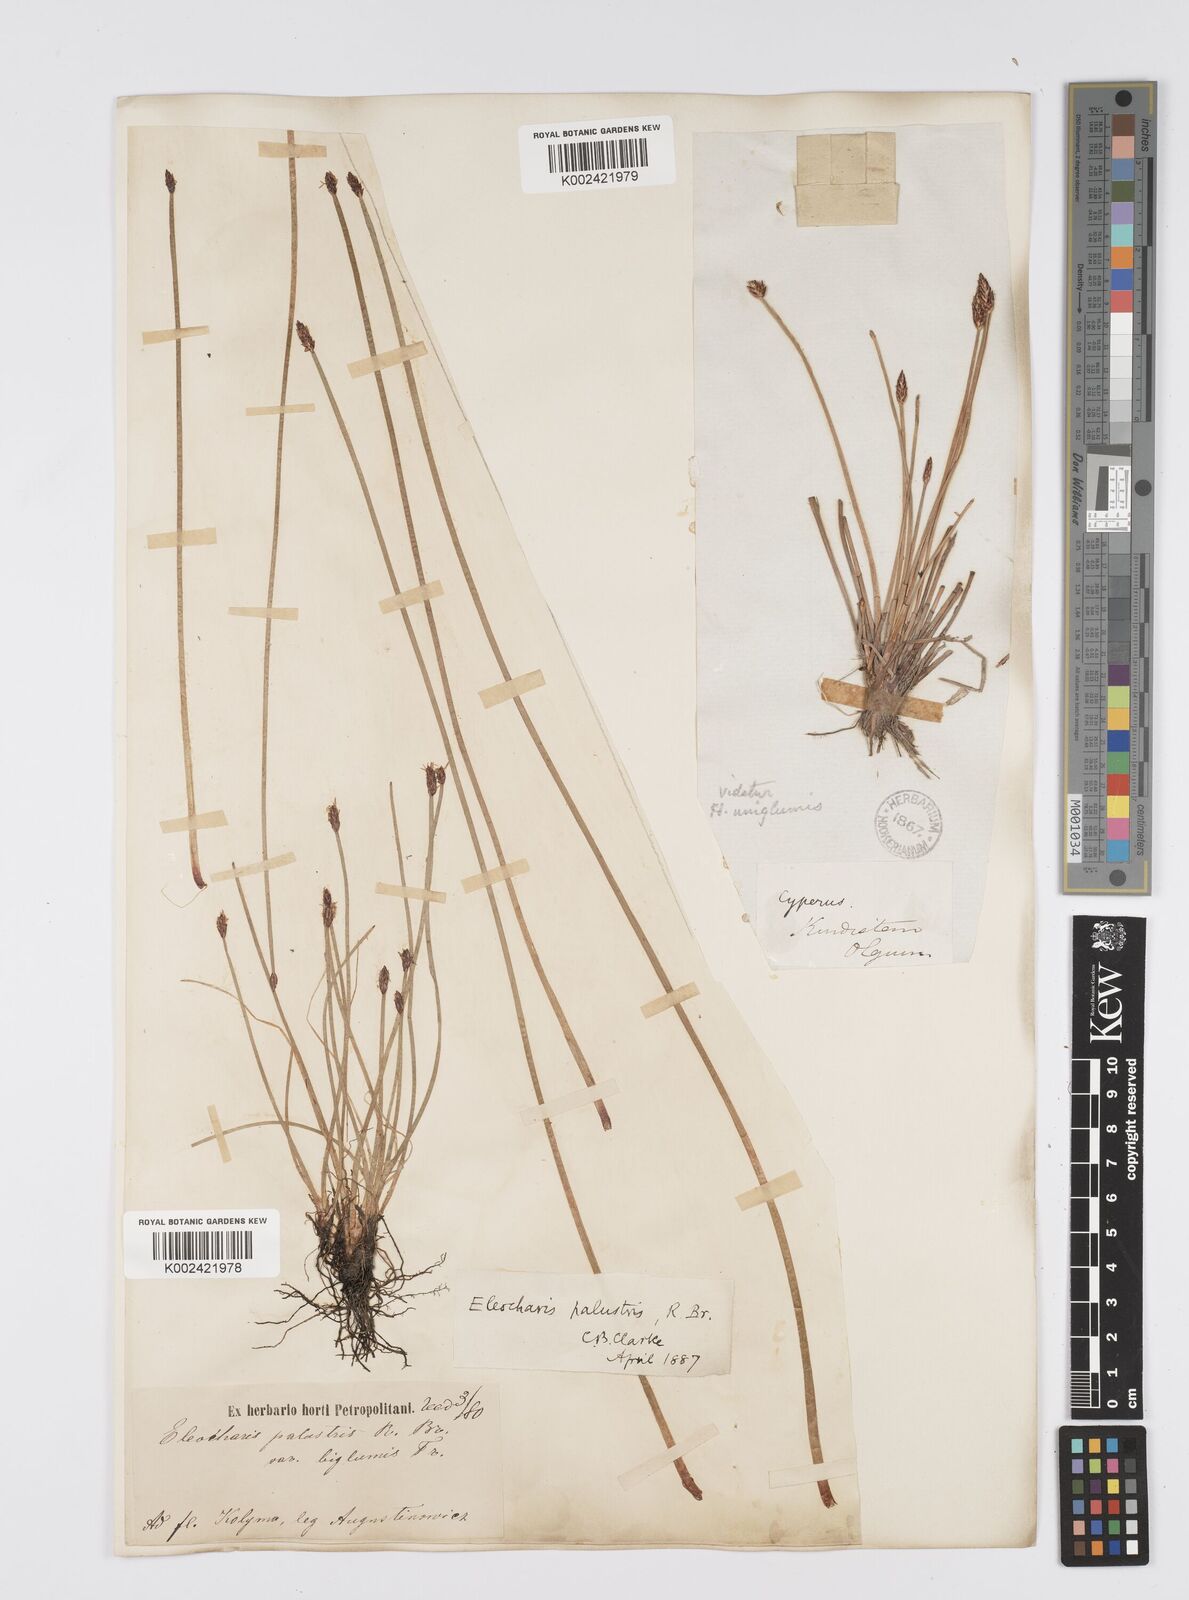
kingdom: Plantae
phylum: Tracheophyta
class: Liliopsida
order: Poales
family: Cyperaceae
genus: Eleocharis
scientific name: Eleocharis palustris
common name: Common spike-rush
